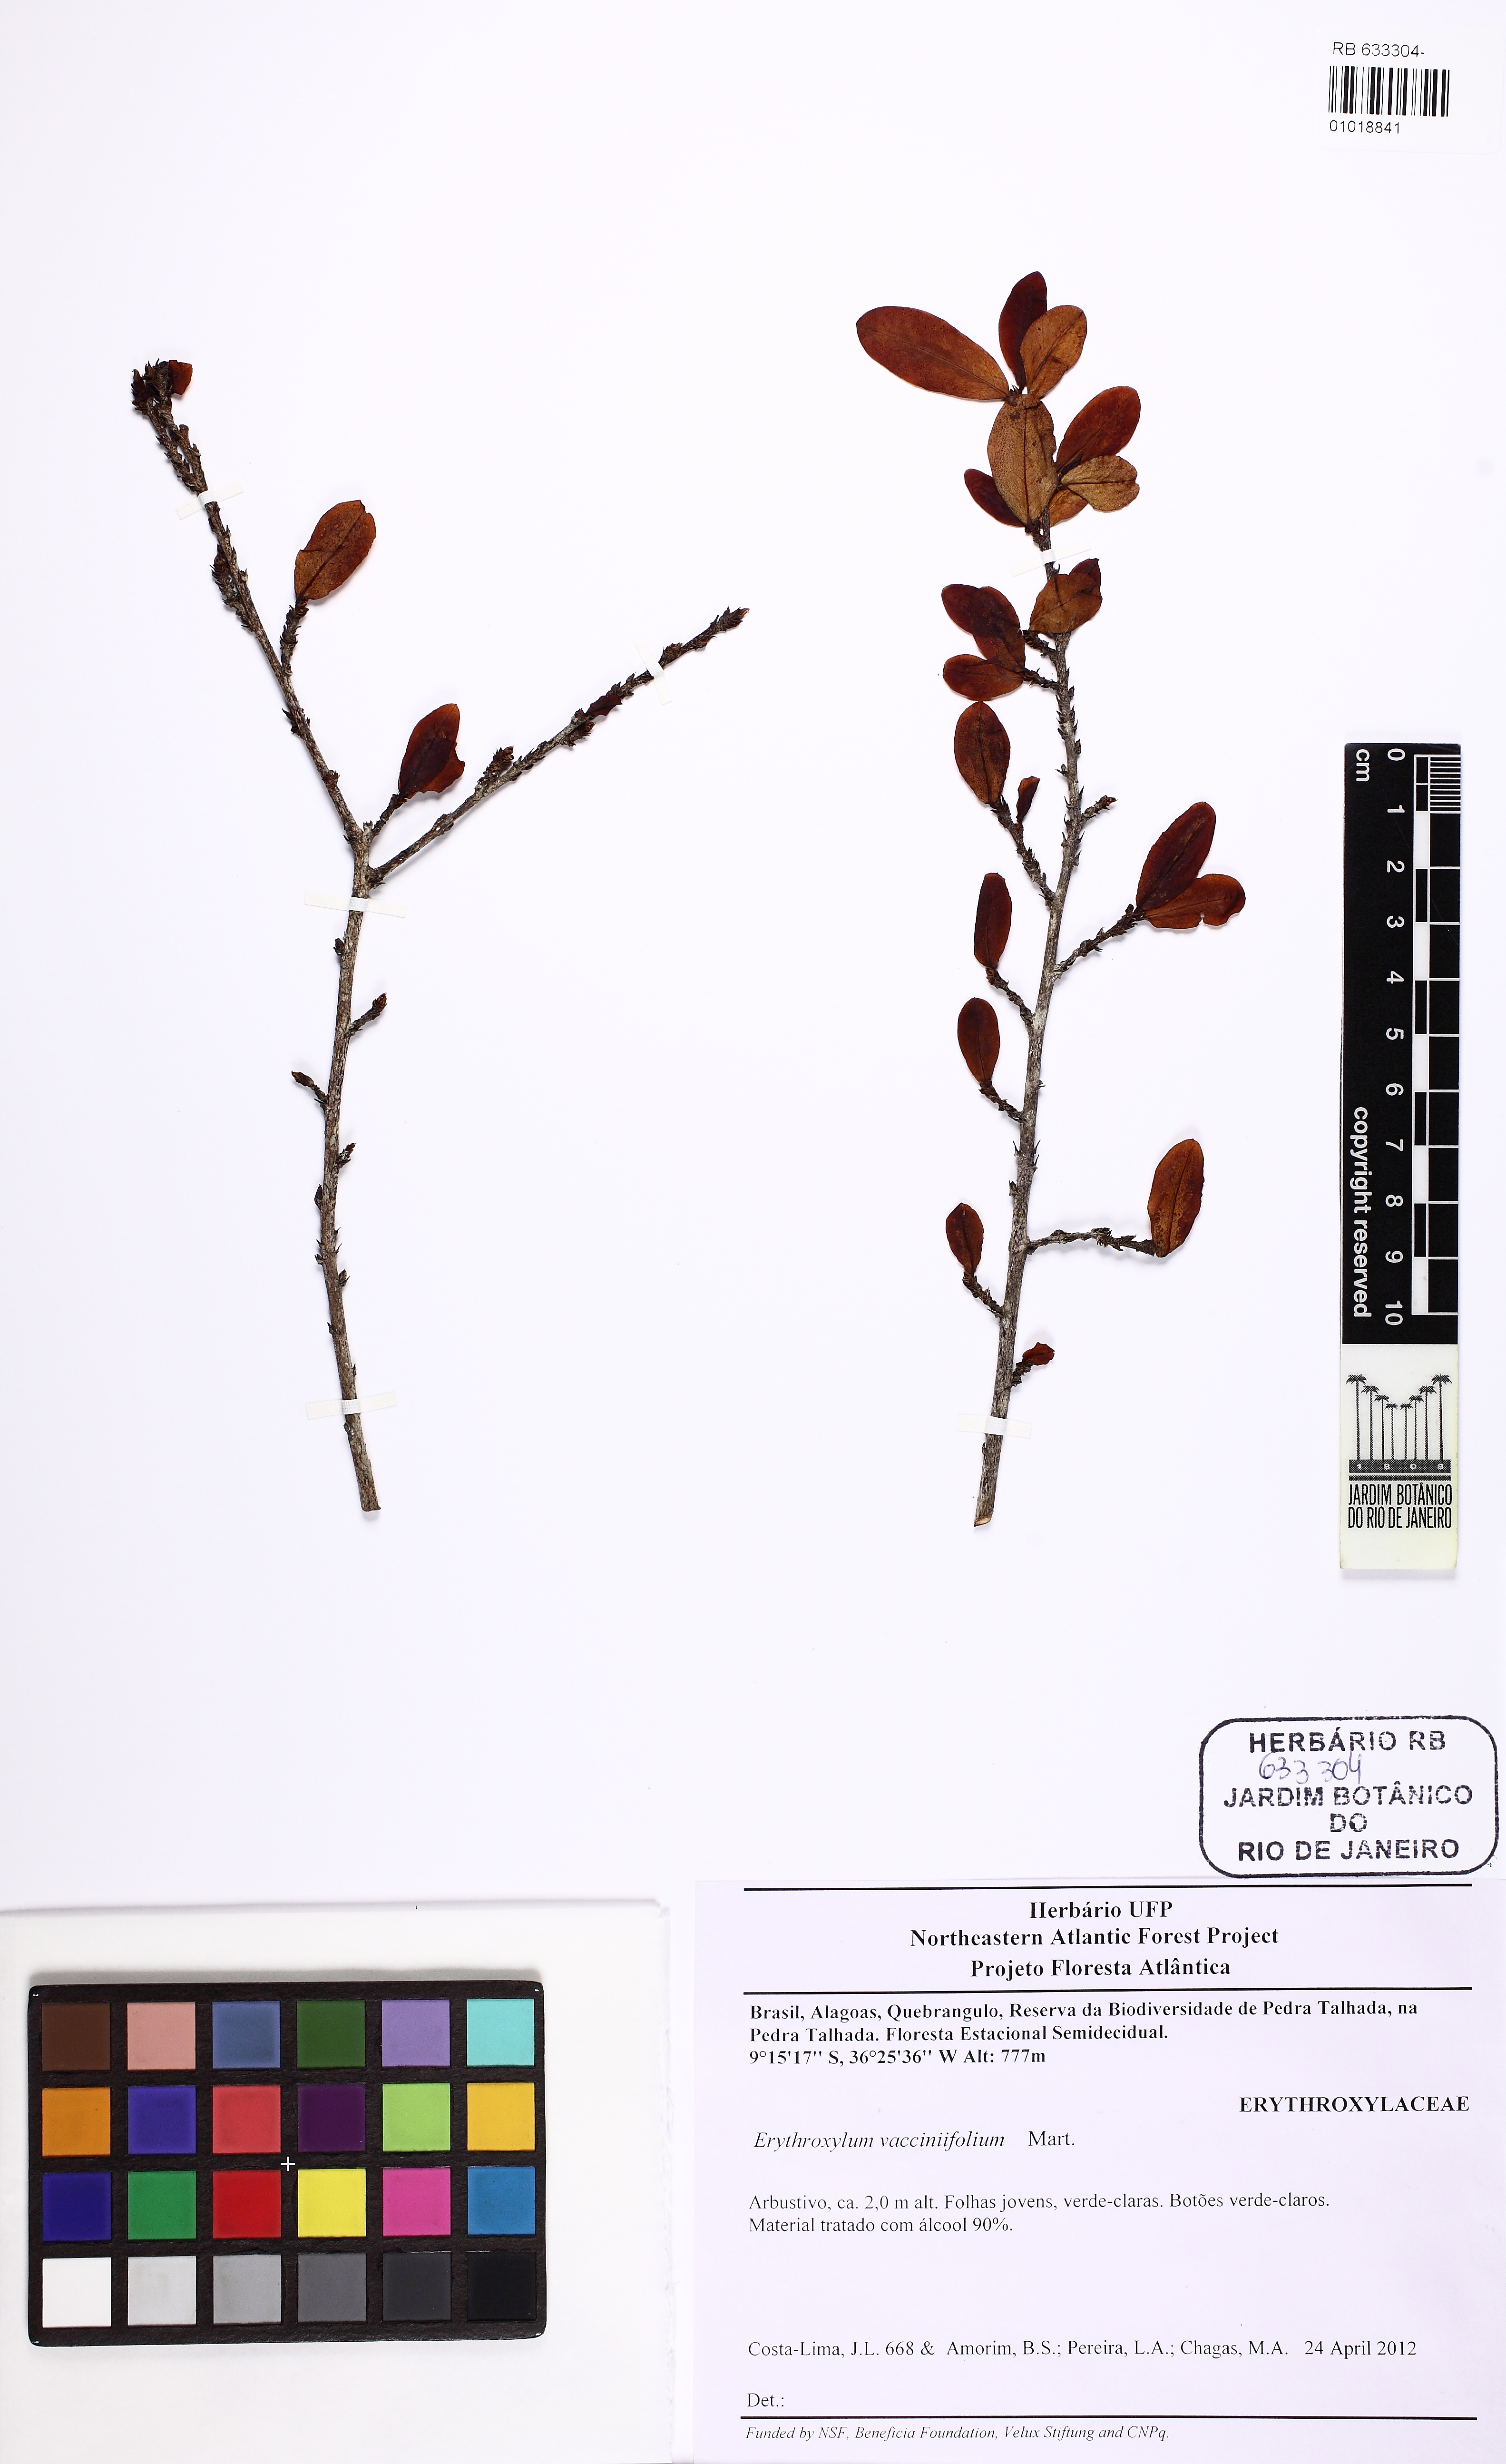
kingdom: Plantae
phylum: Tracheophyta
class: Magnoliopsida
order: Malpighiales
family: Erythroxylaceae
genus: Erythroxylum
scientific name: Erythroxylum vaccinifolium
